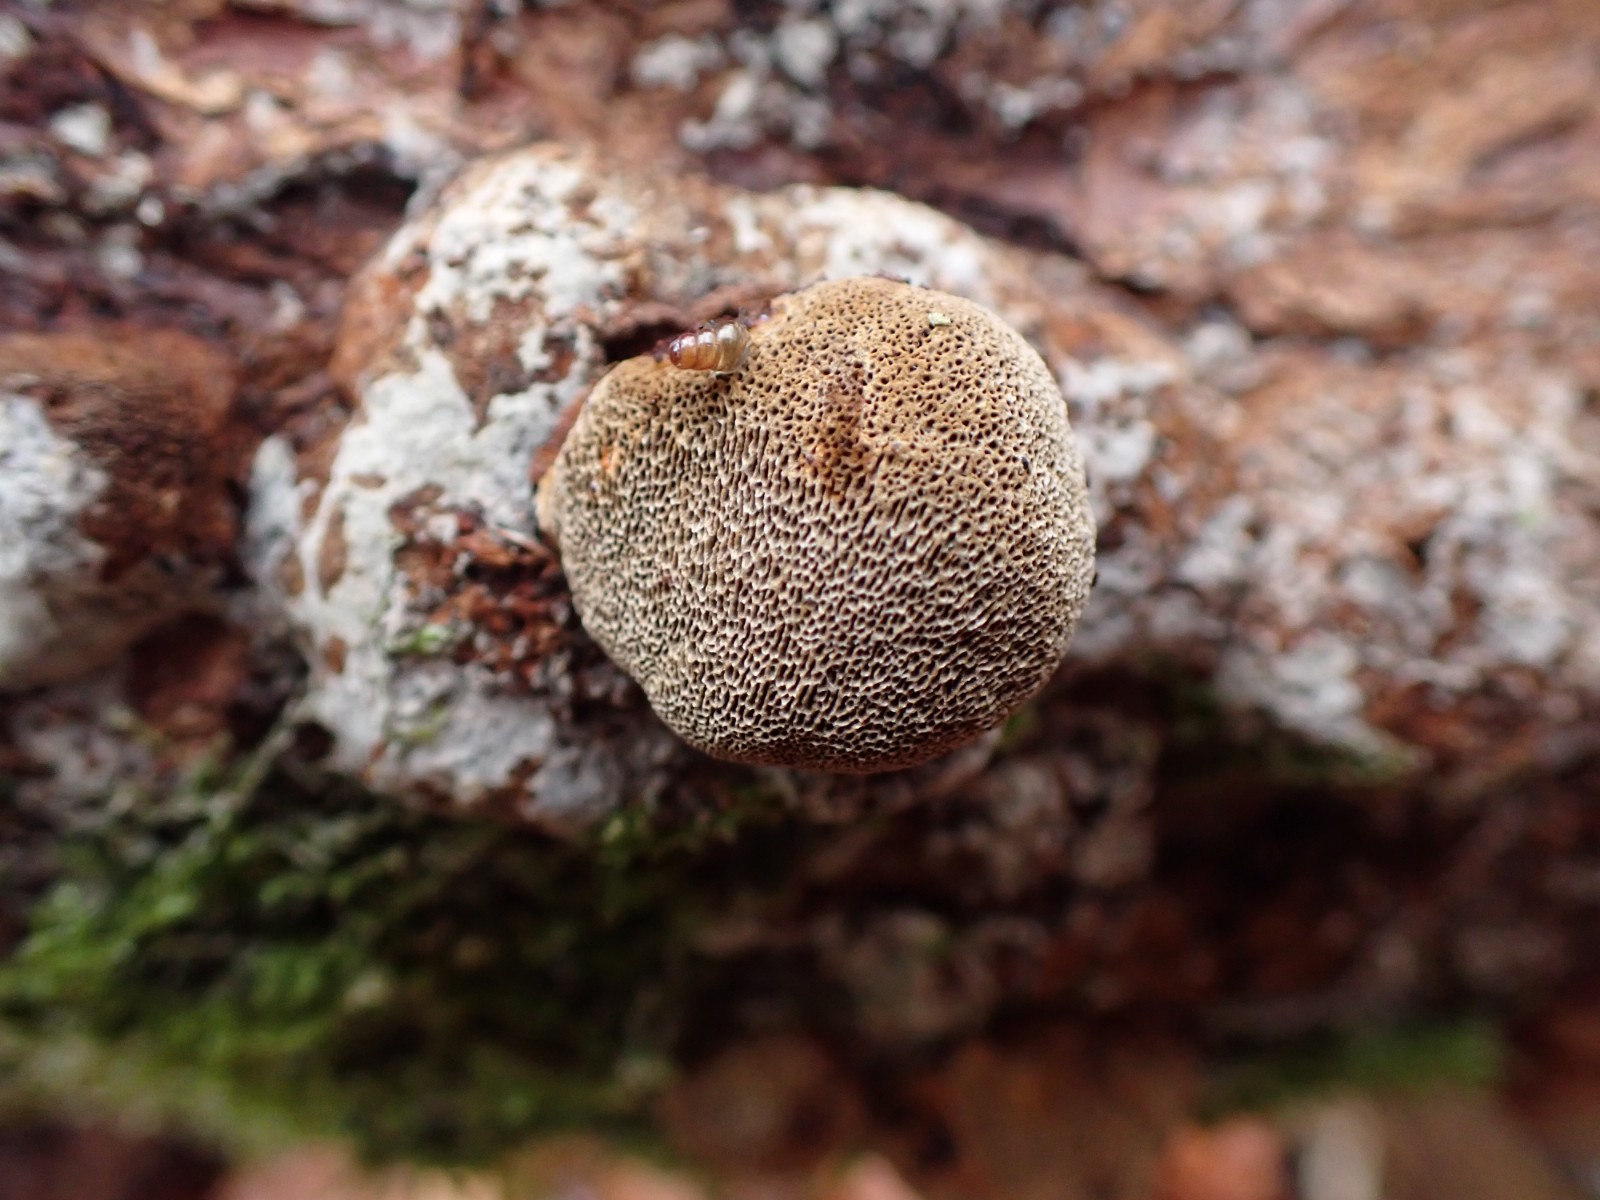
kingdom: Fungi
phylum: Basidiomycota
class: Agaricomycetes
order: Polyporales
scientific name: Polyporales
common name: poresvampordenen
